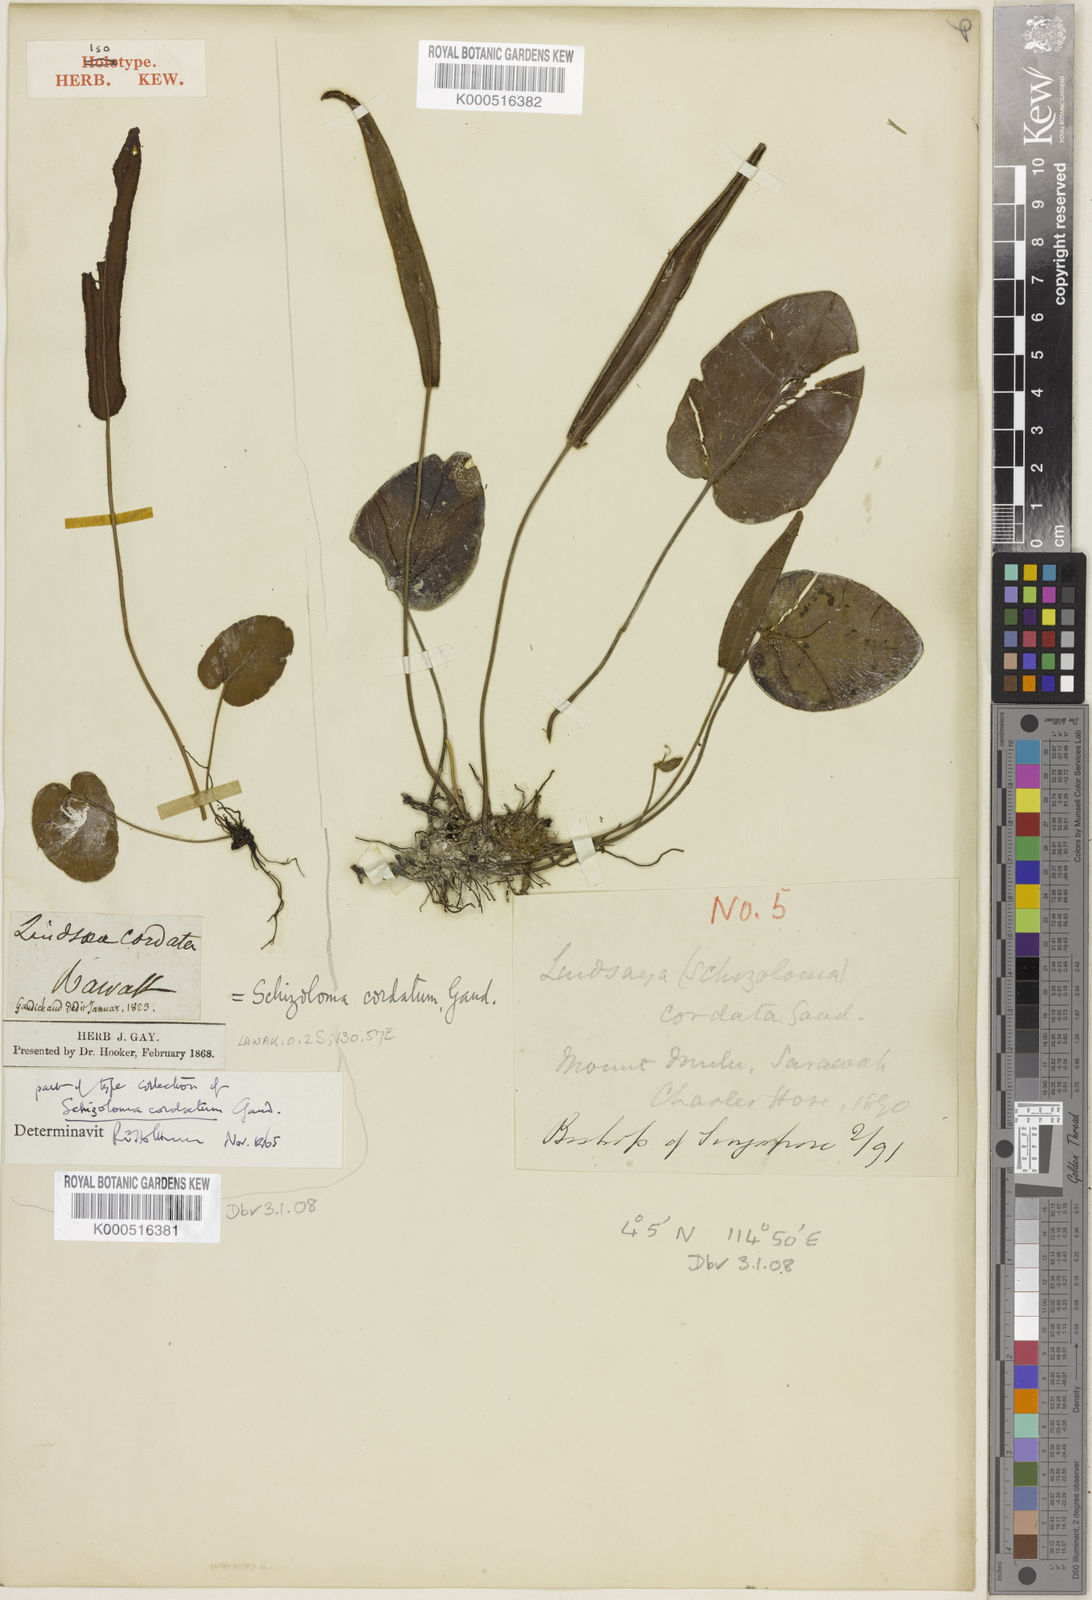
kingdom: Plantae
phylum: Tracheophyta
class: Polypodiopsida
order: Polypodiales
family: Pteridaceae
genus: Taenitis
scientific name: Taenitis cordata
